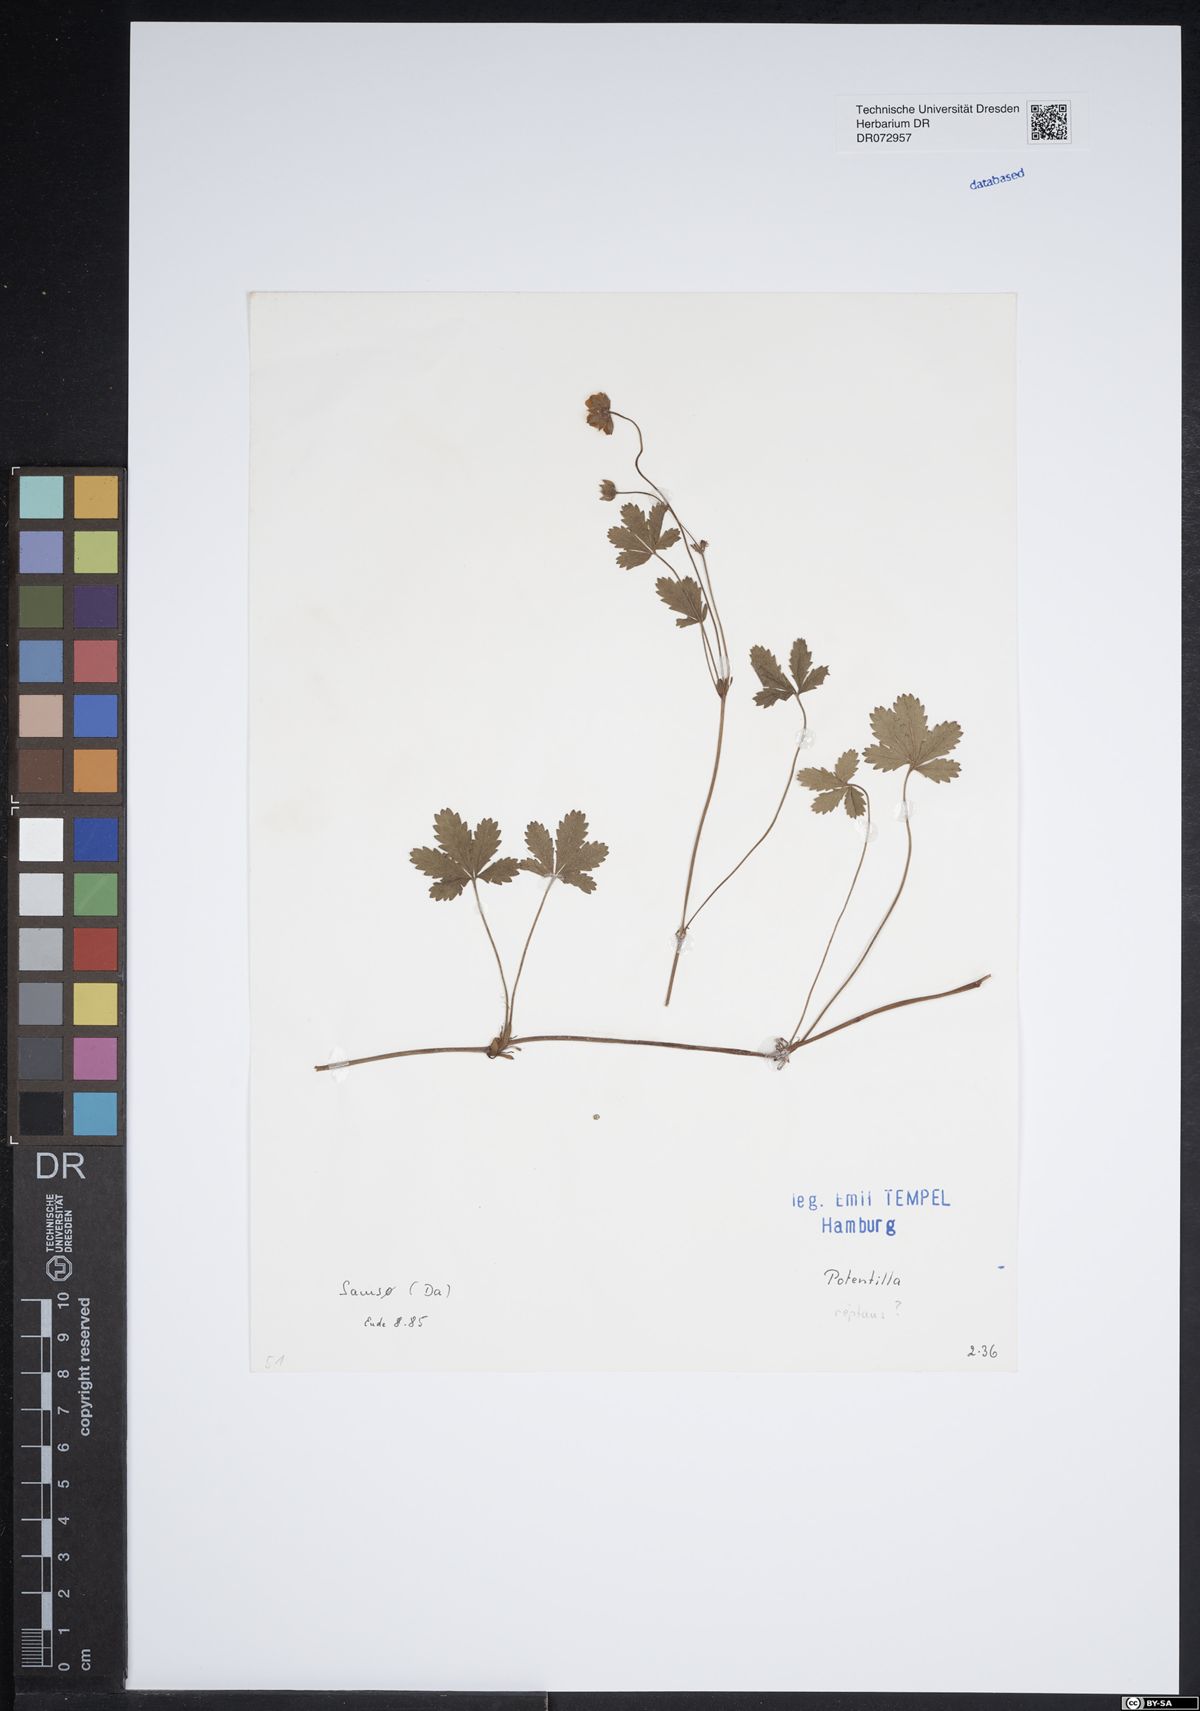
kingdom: Plantae
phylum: Tracheophyta
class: Magnoliopsida
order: Rosales
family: Rosaceae
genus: Potentilla
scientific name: Potentilla reptans
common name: Creeping cinquefoil
